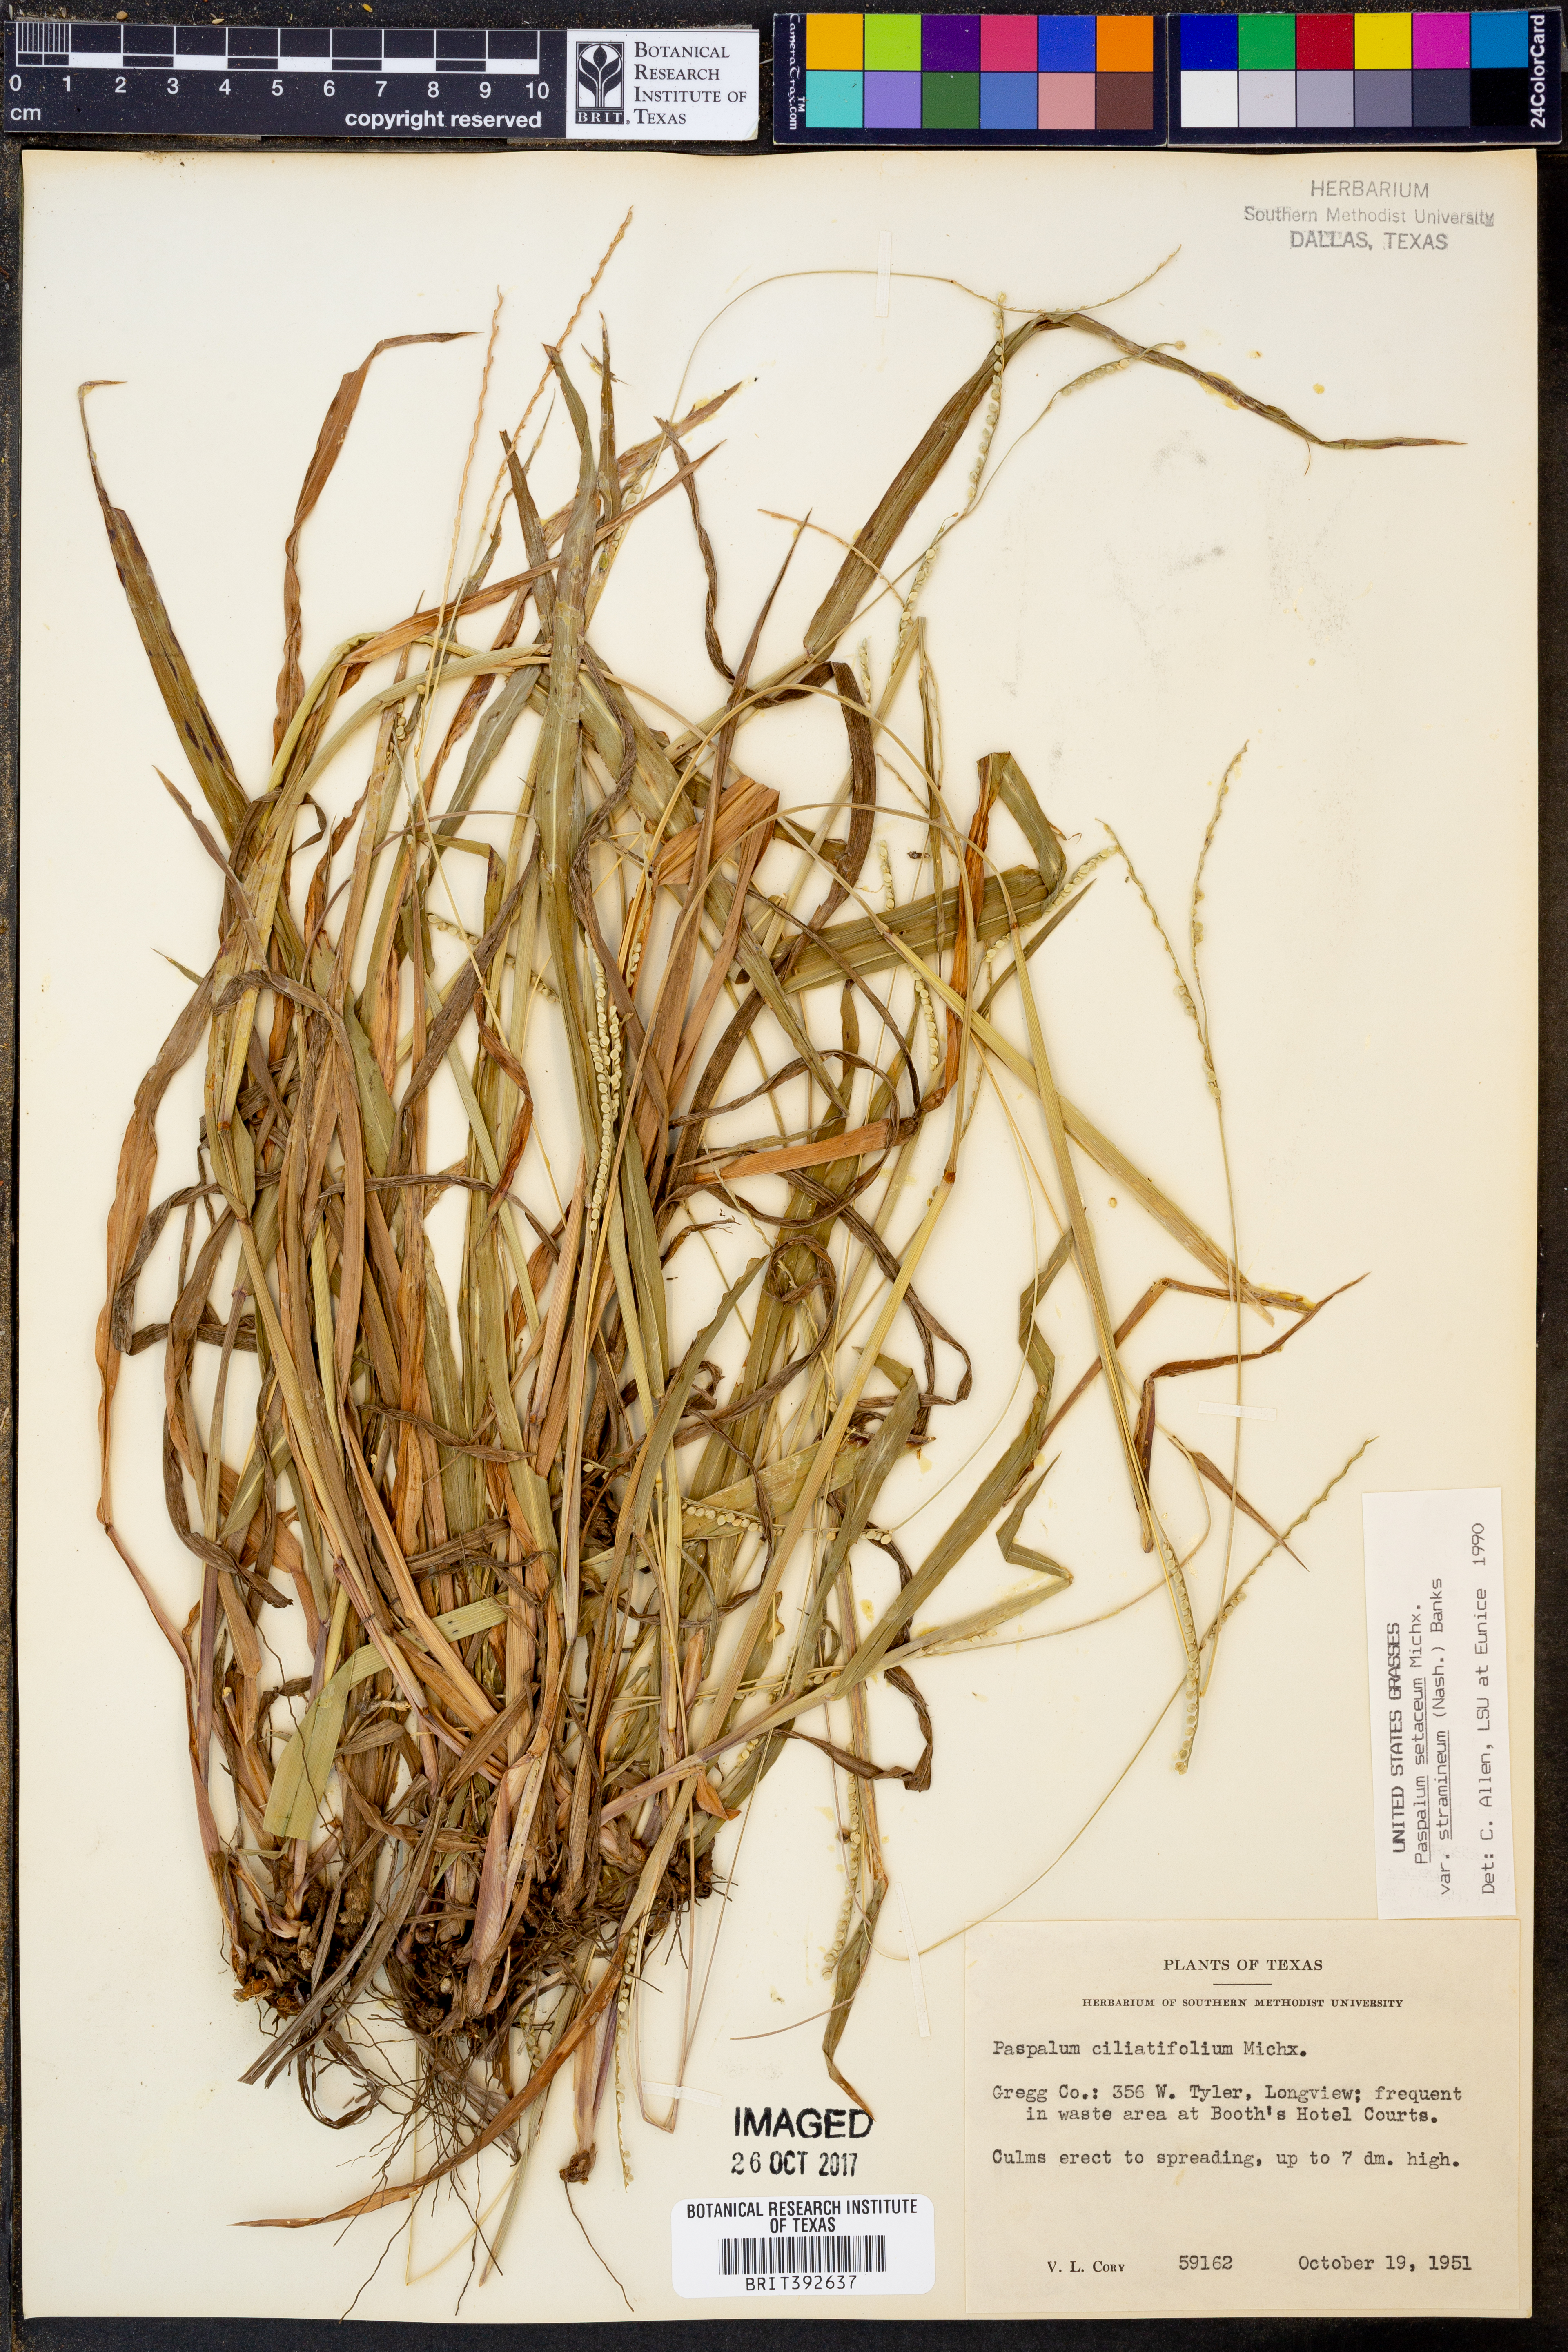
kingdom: Plantae
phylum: Tracheophyta
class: Liliopsida
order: Poales
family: Poaceae
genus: Paspalum
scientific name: Paspalum setaceum
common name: Slender paspalum
